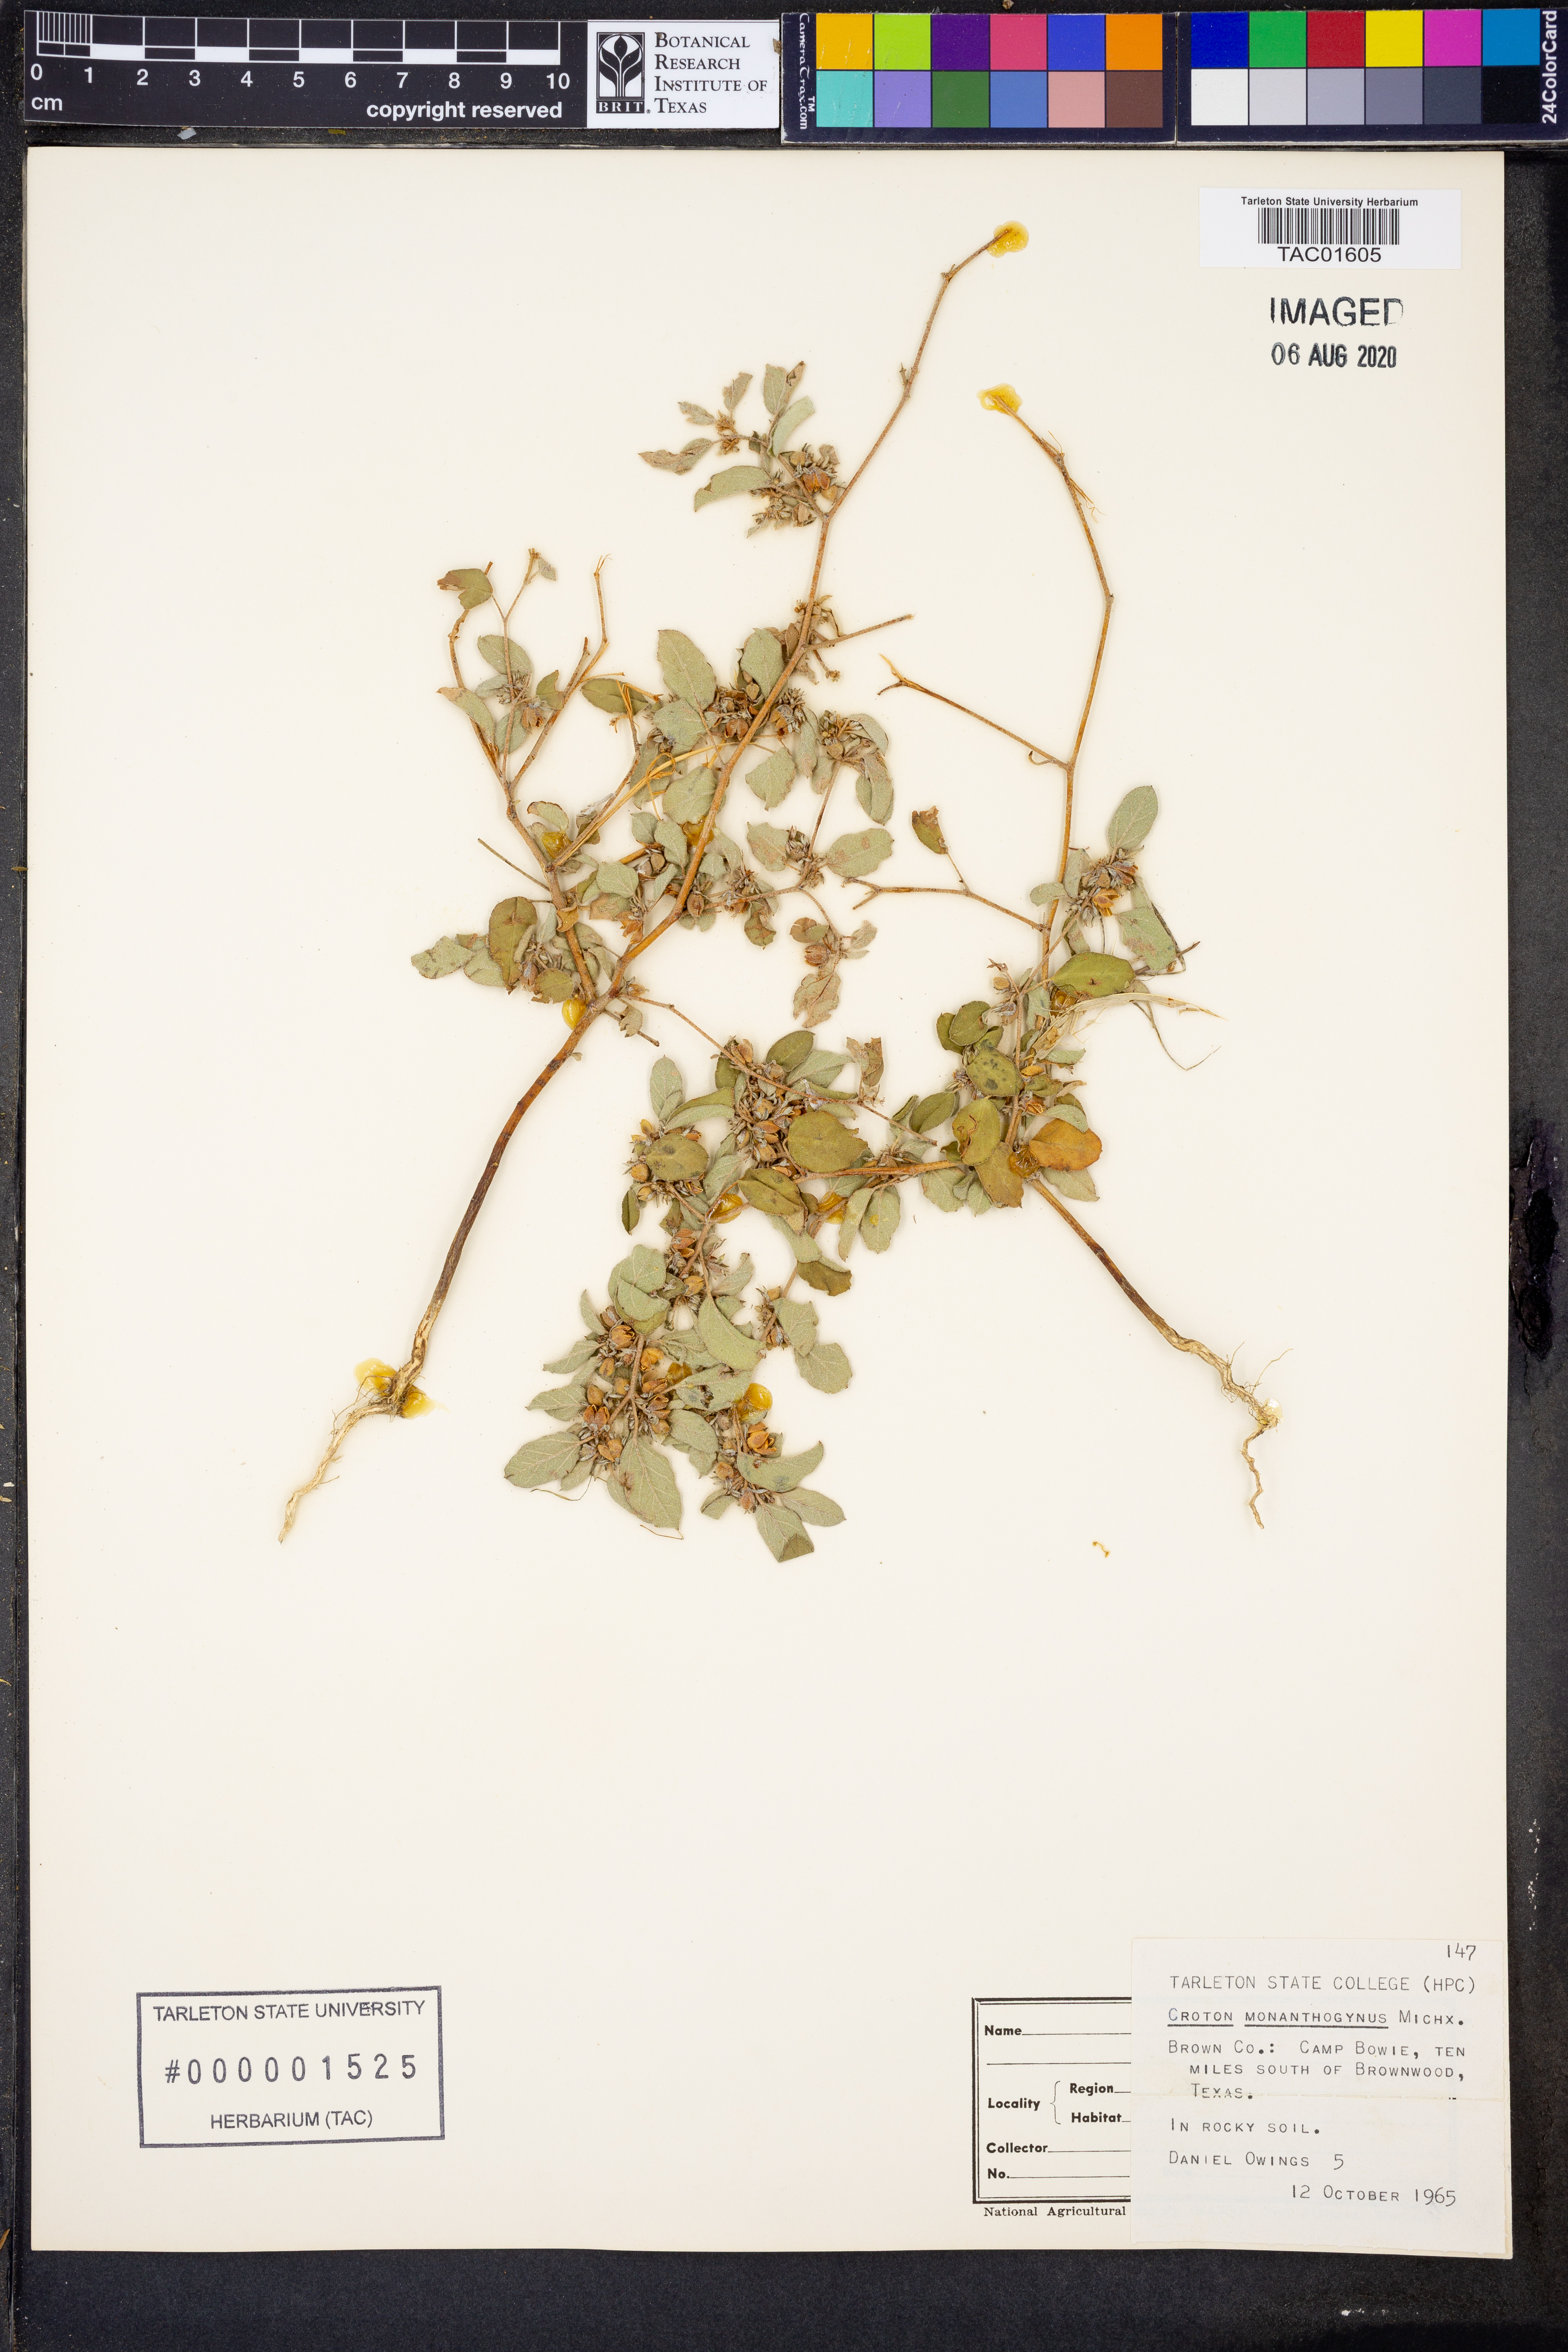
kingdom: Plantae
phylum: Tracheophyta
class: Magnoliopsida
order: Malpighiales
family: Euphorbiaceae
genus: Croton
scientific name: Croton monanthogynus
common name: One-seed croton
